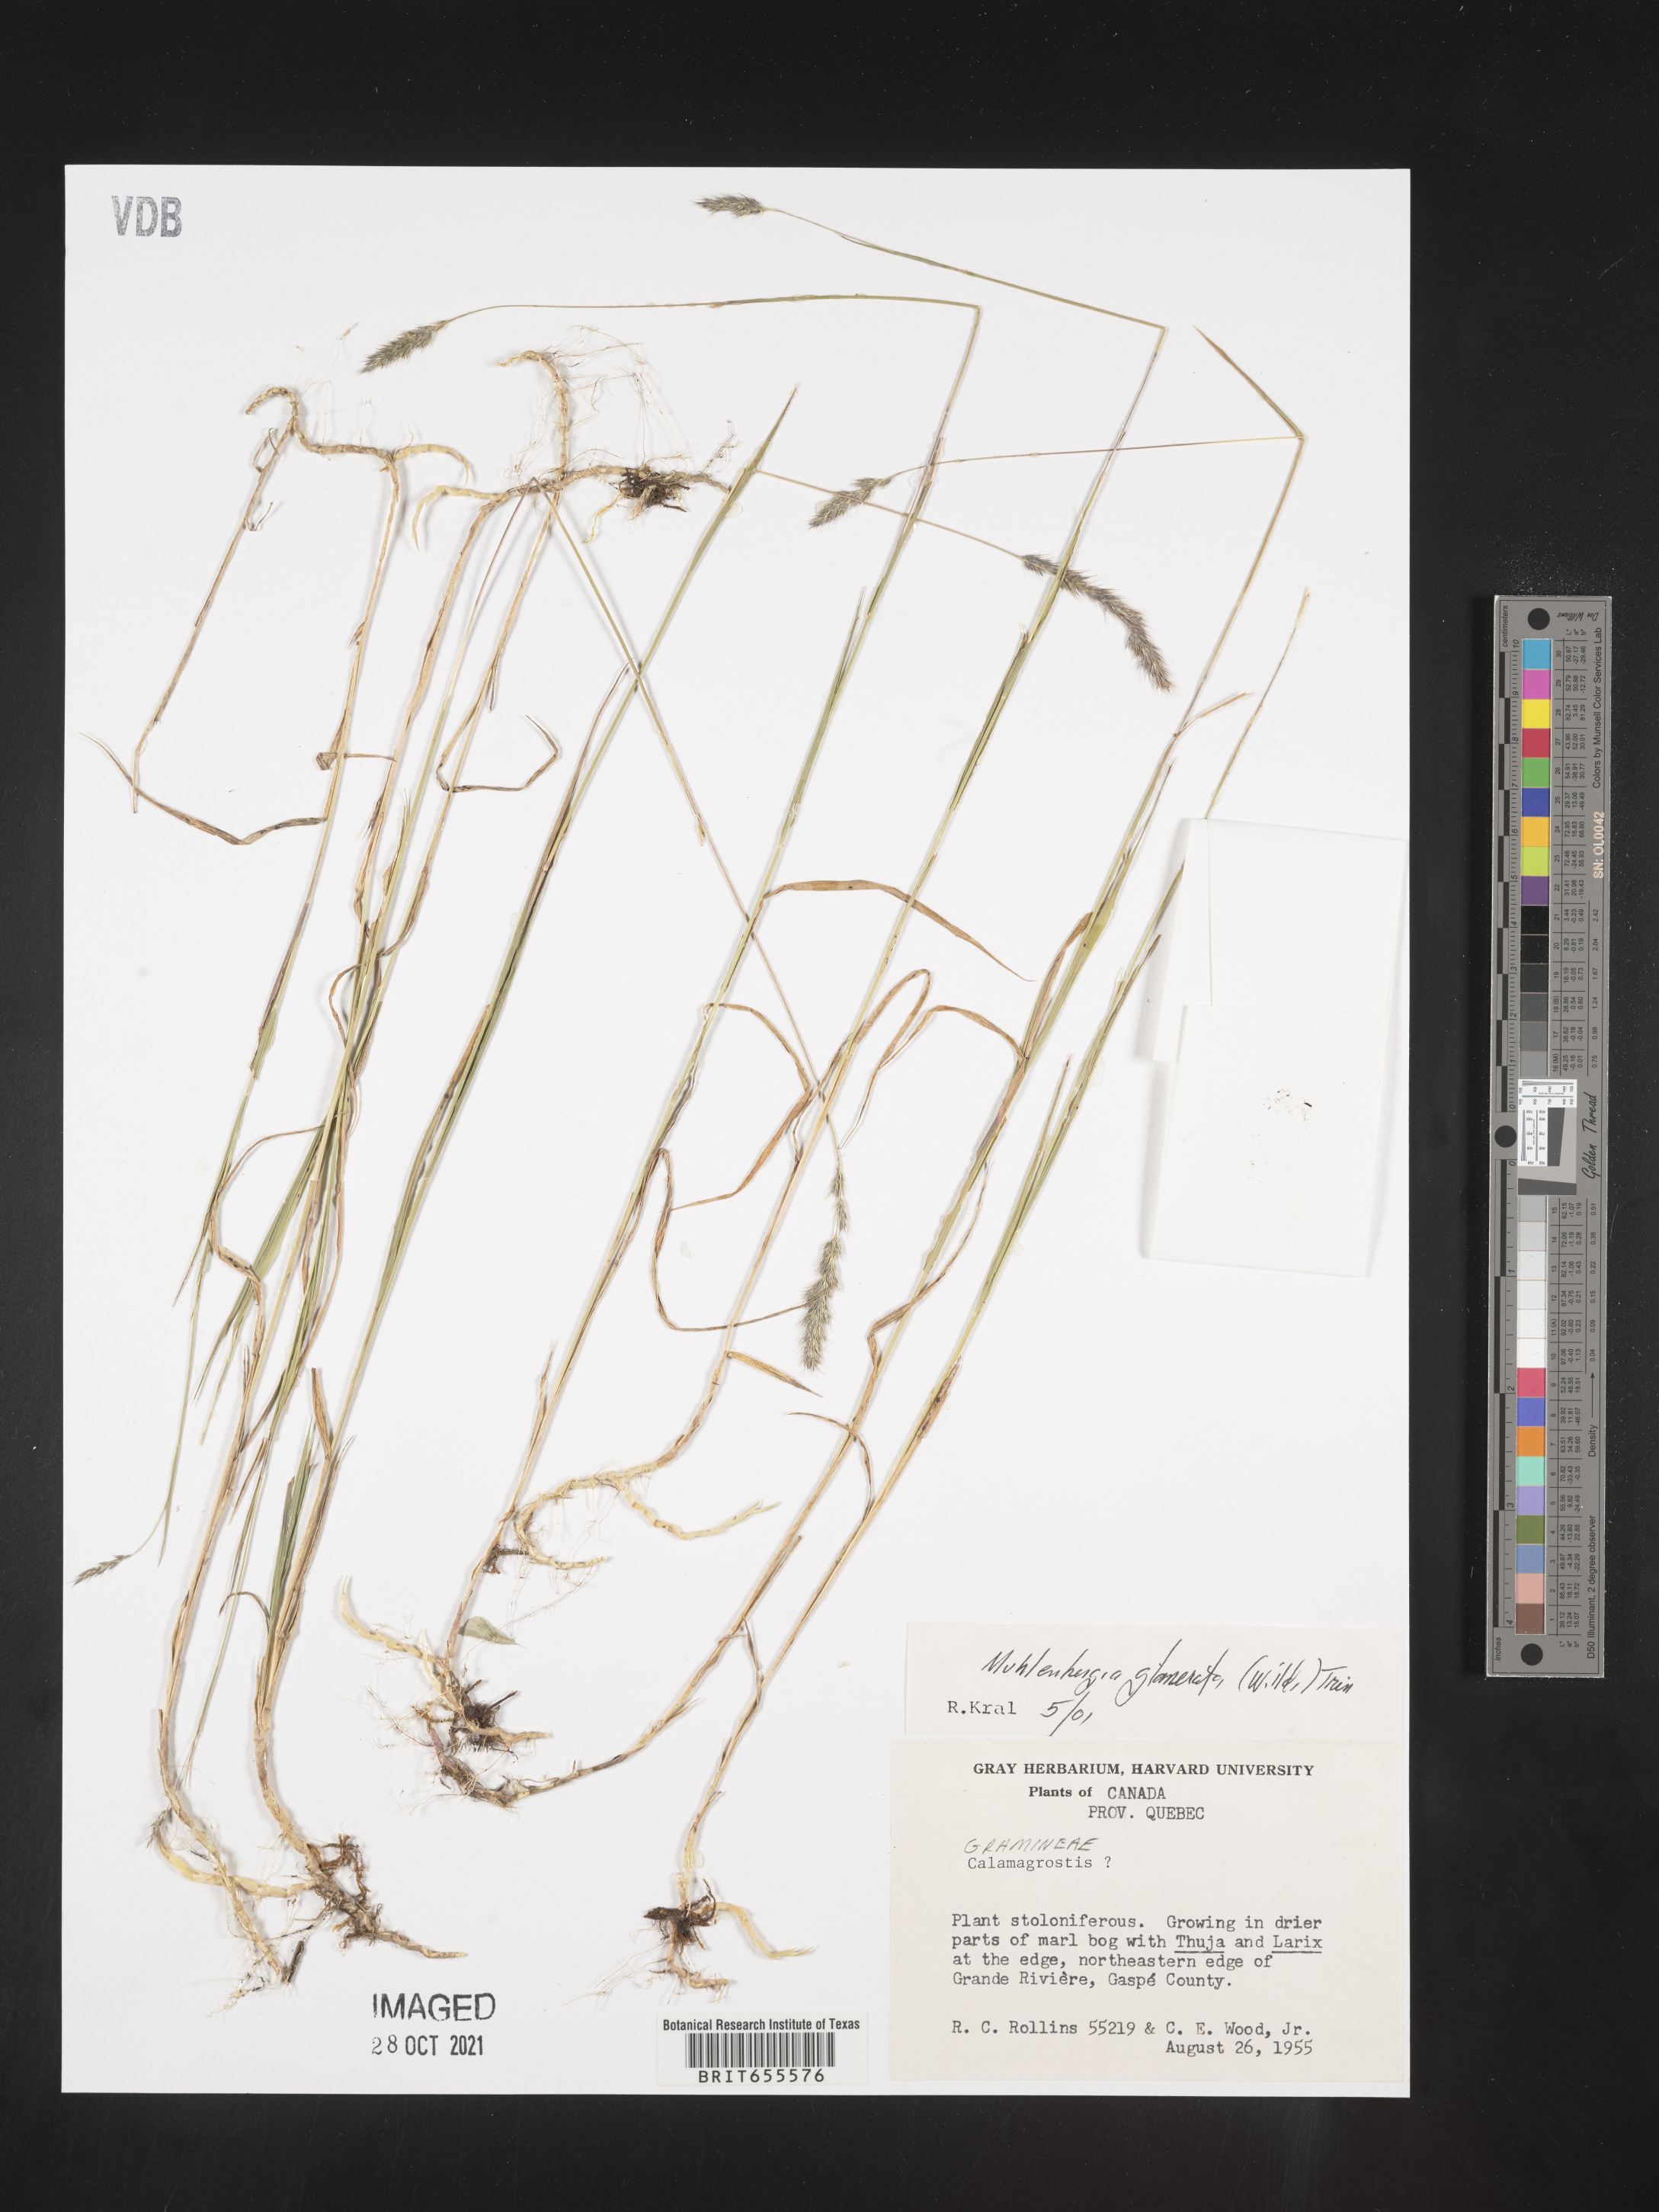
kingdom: Plantae
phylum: Tracheophyta
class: Liliopsida
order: Poales
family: Poaceae
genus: Muhlenbergia
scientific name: Muhlenbergia
